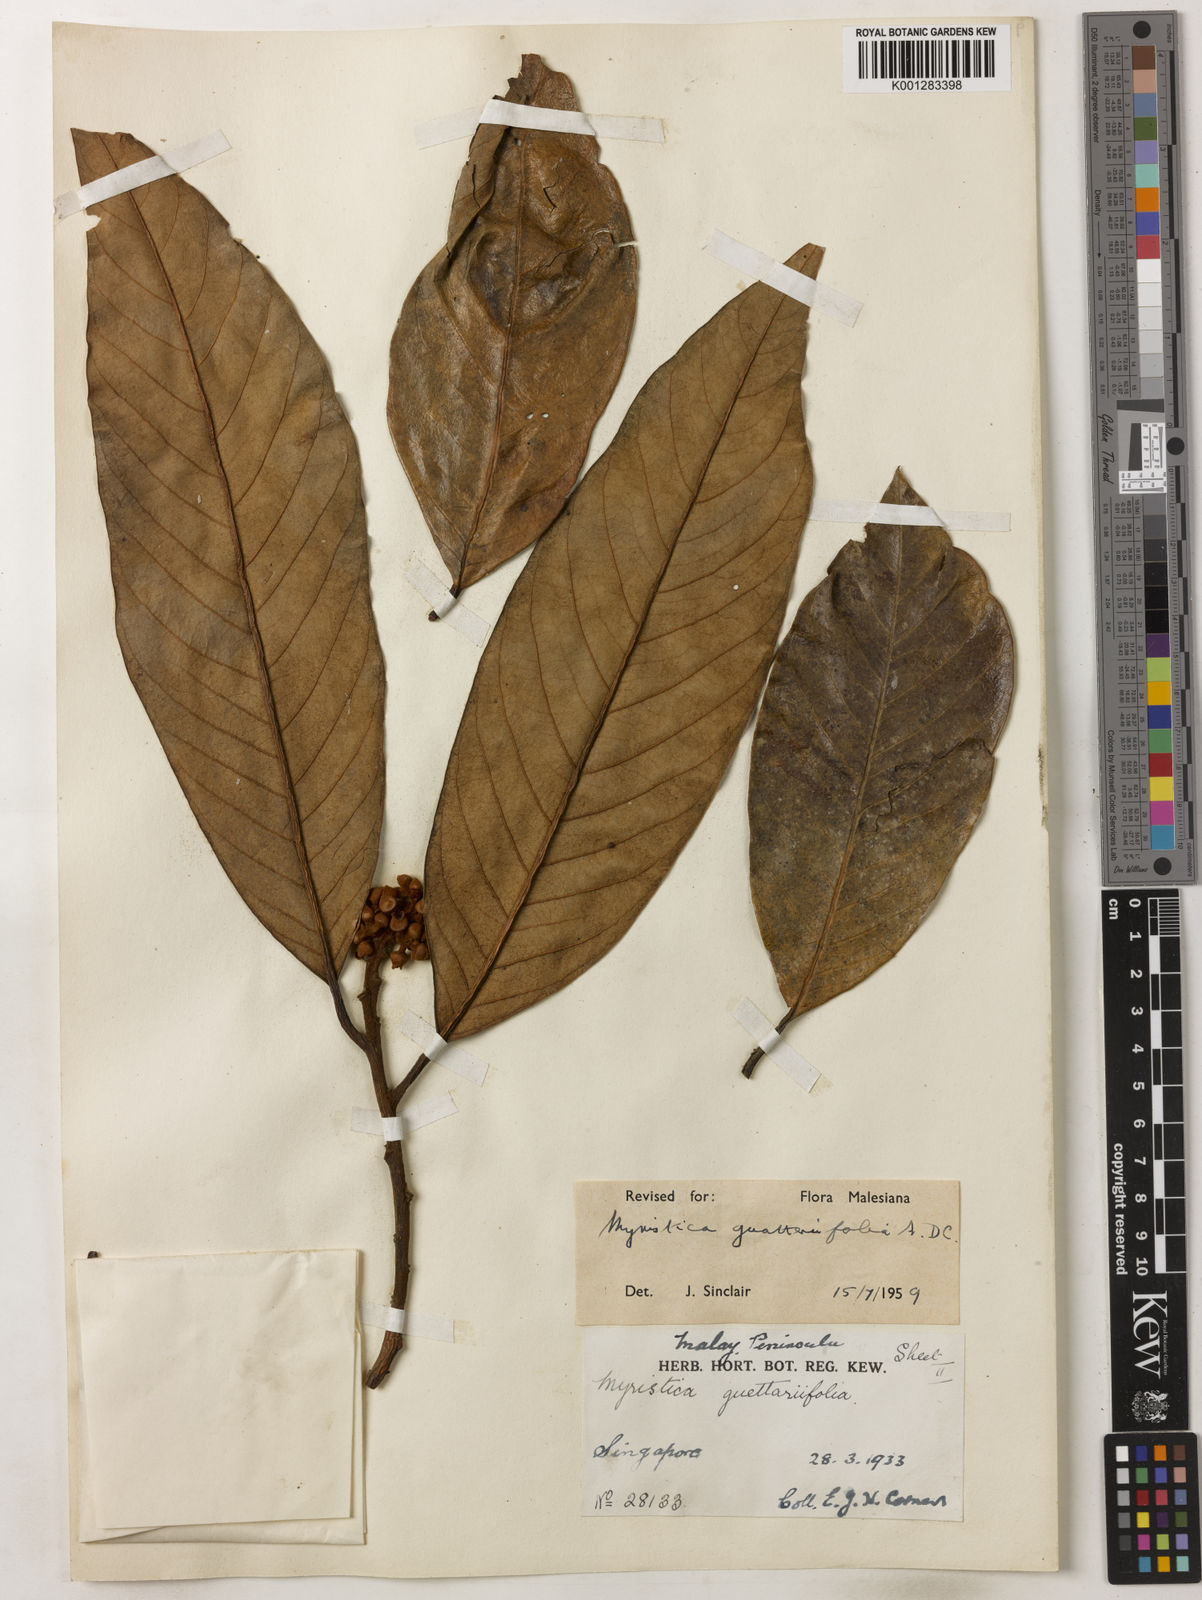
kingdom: Plantae
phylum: Tracheophyta
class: Magnoliopsida
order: Magnoliales
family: Myristicaceae
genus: Myristica
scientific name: Myristica
